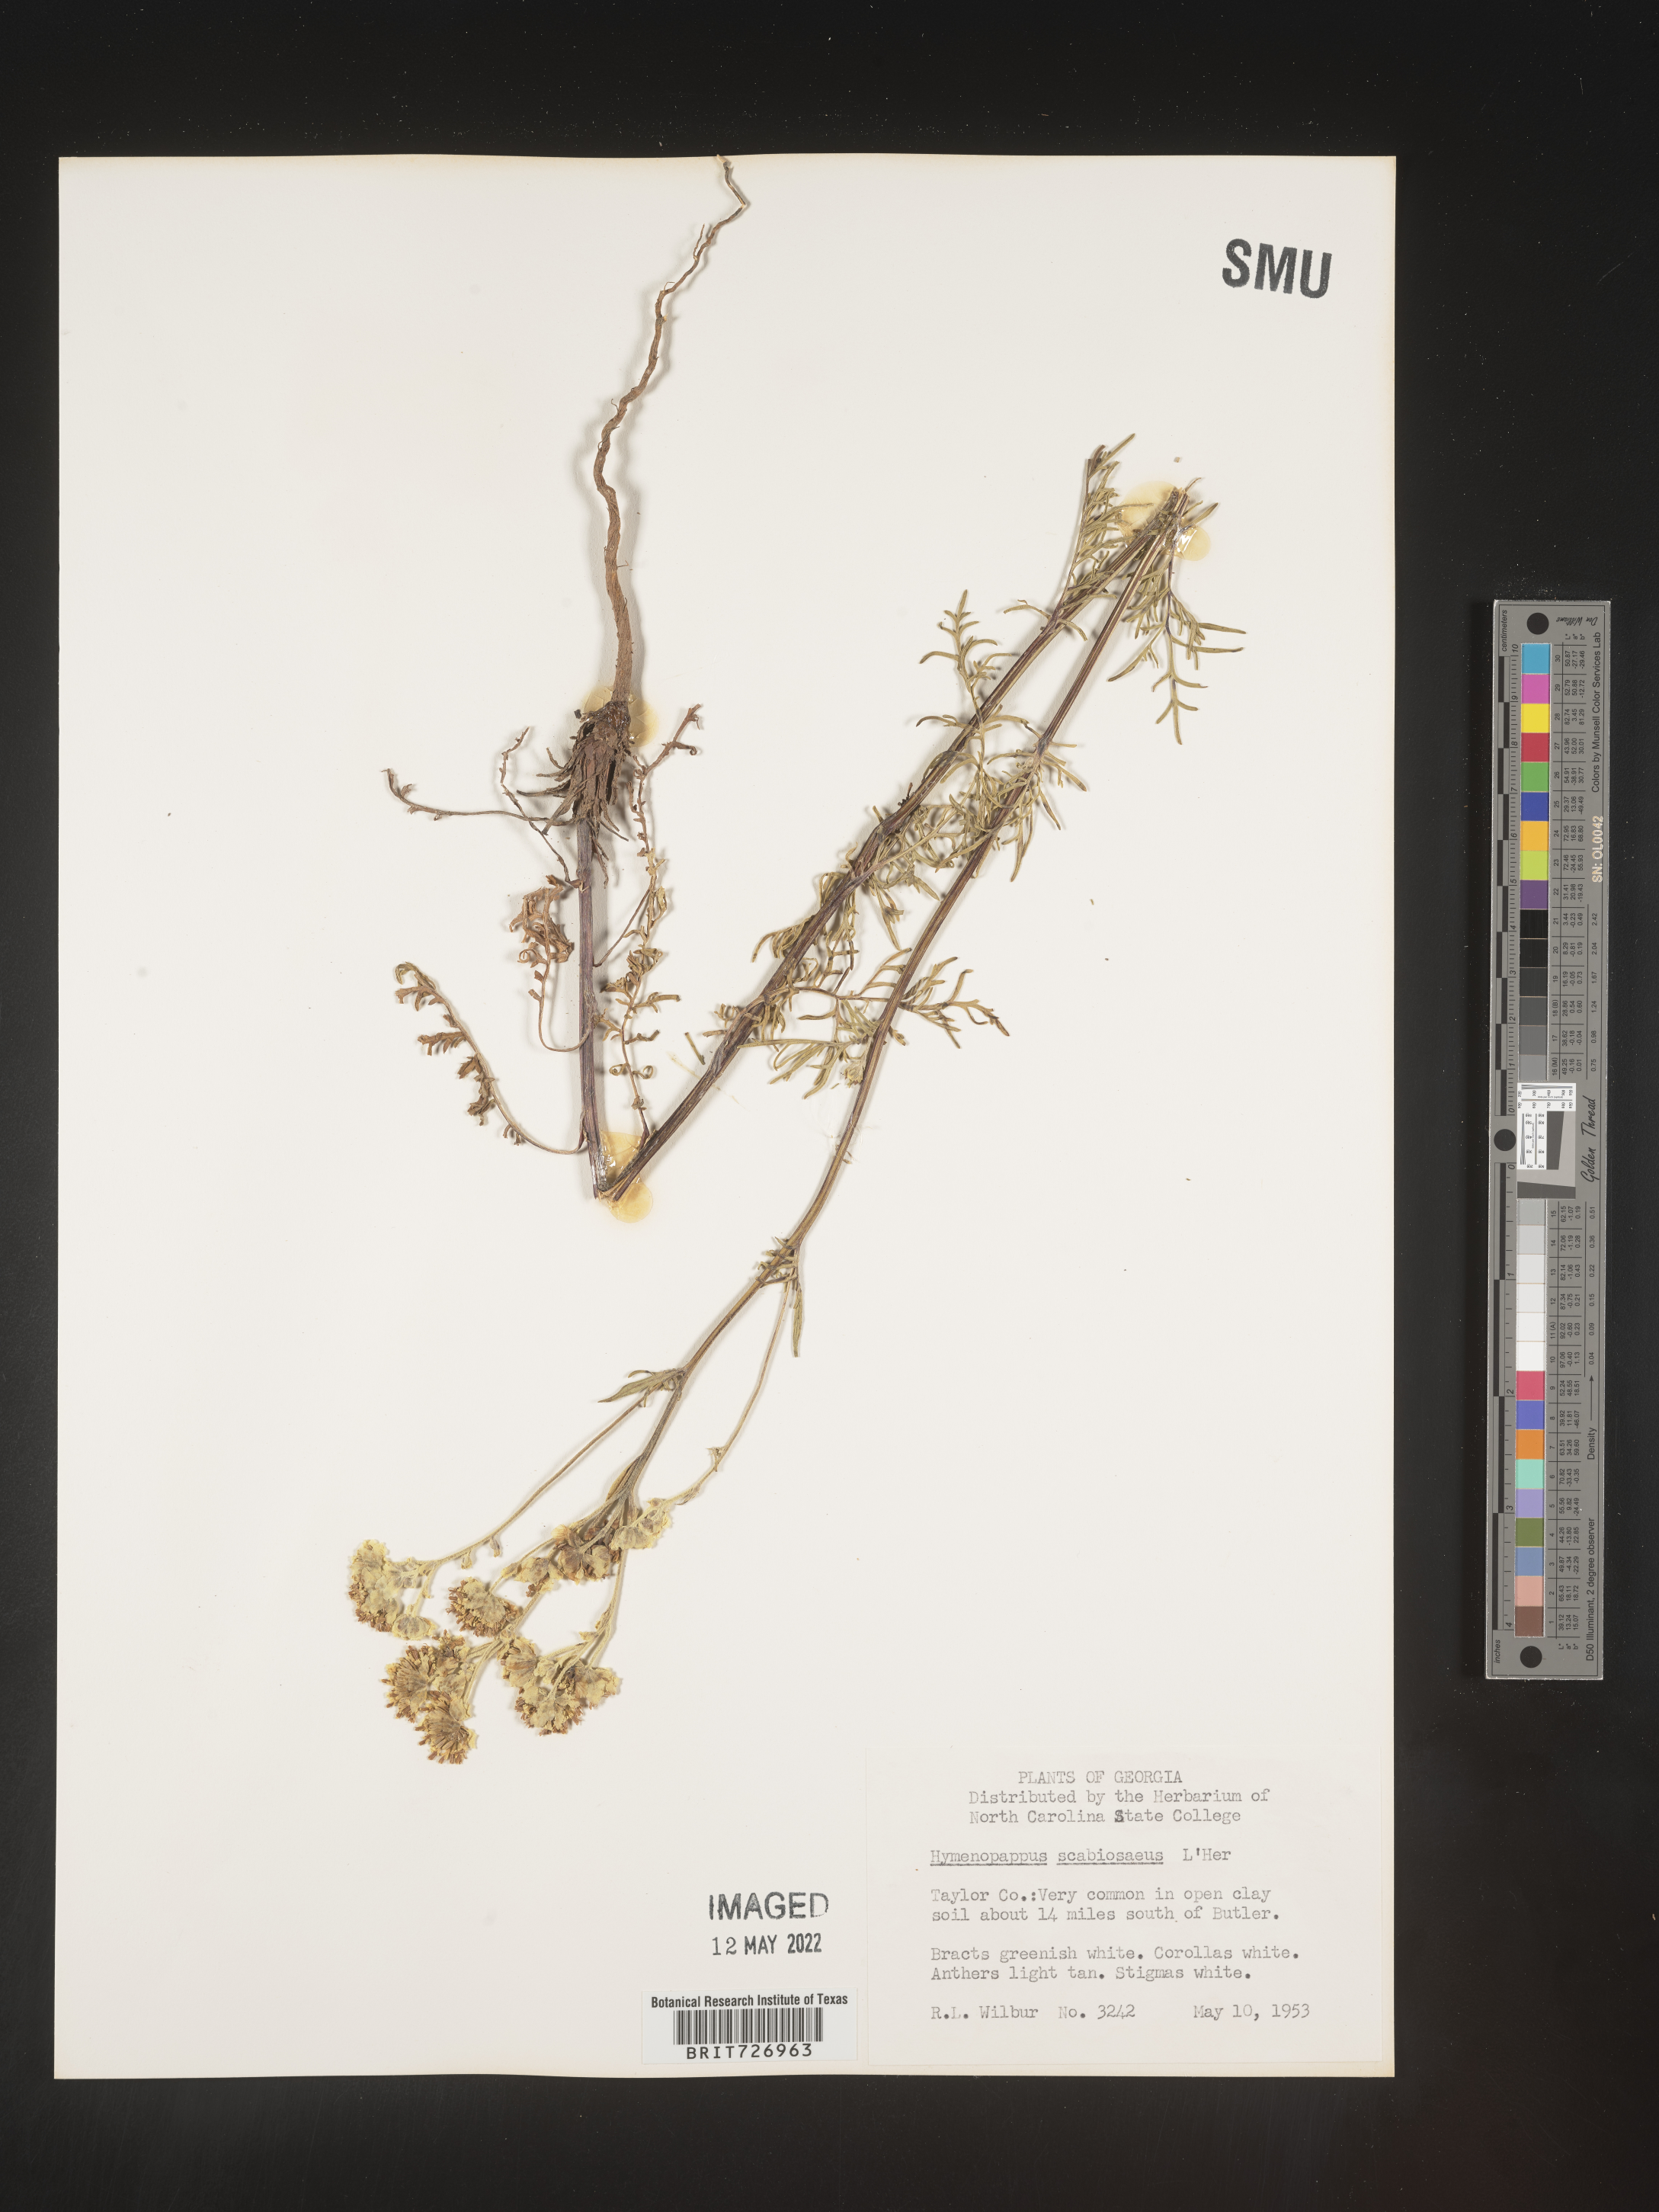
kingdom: Plantae
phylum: Tracheophyta
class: Magnoliopsida
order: Asterales
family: Asteraceae
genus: Hymenopappus
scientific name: Hymenopappus scabiosaeus
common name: Carolina woollywhite
